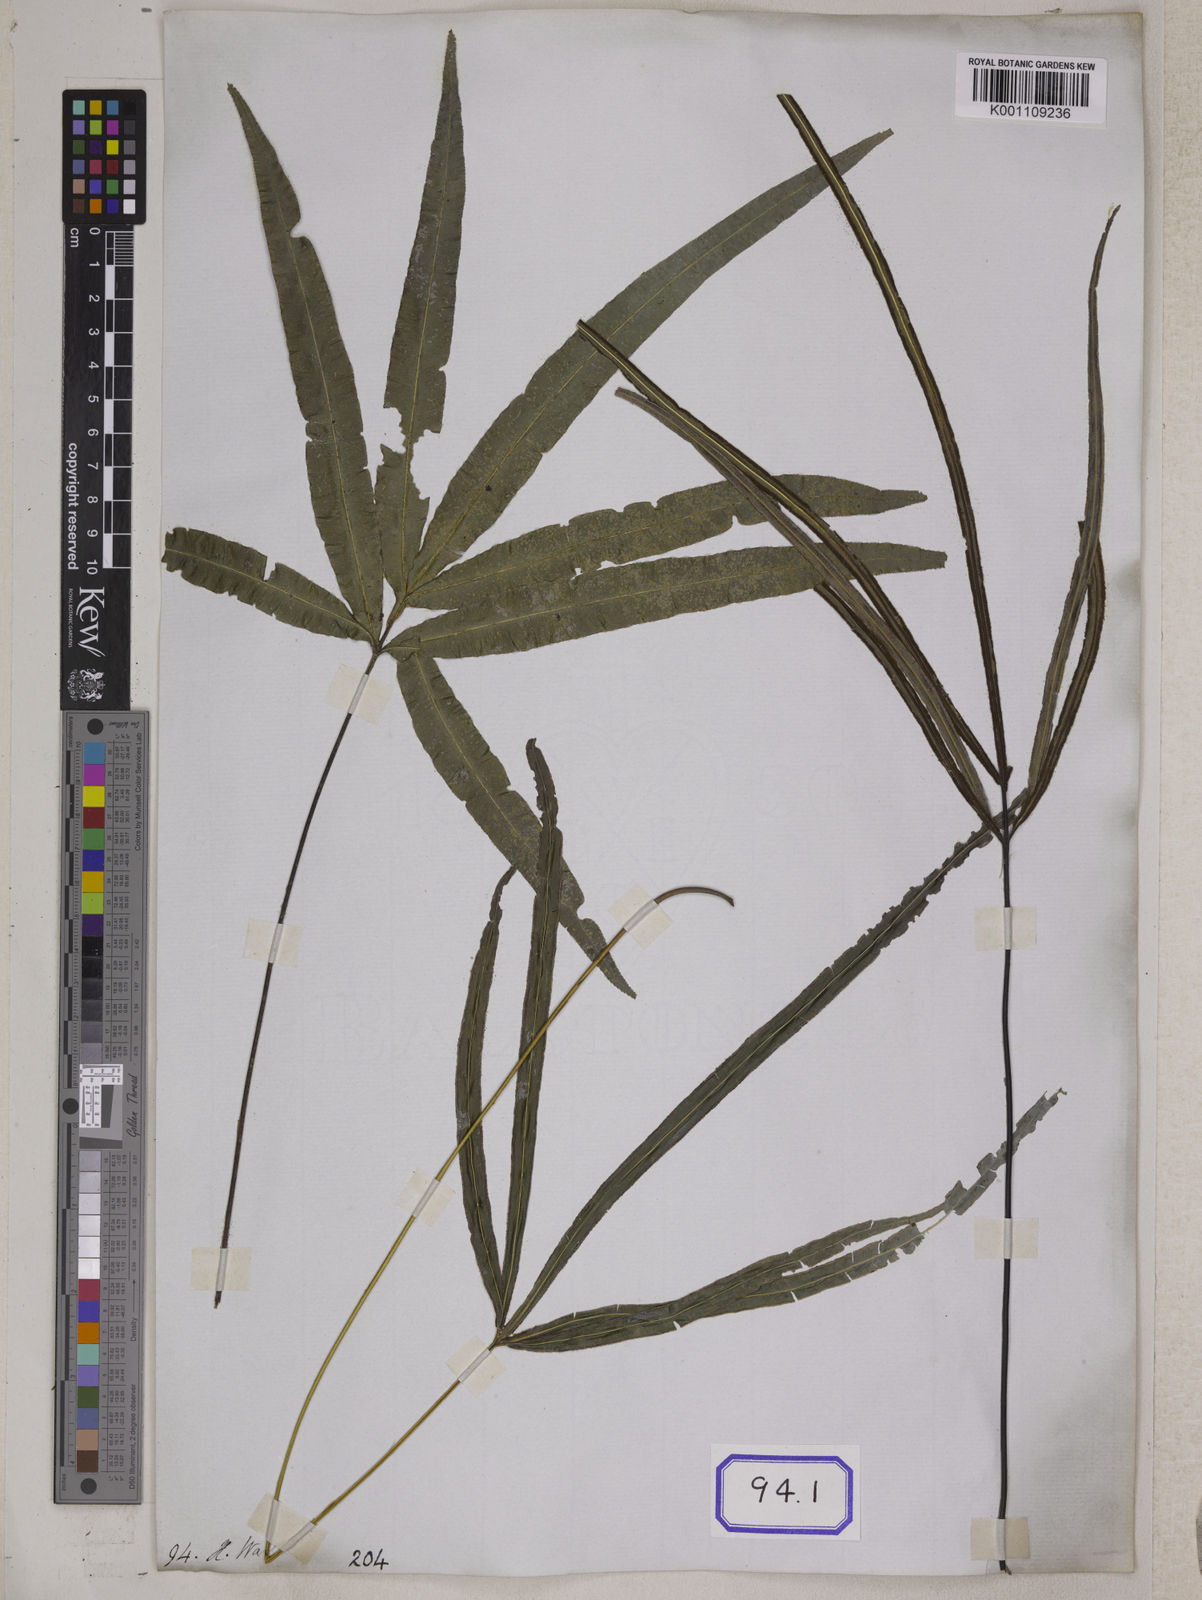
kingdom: Plantae
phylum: Tracheophyta
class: Polypodiopsida
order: Polypodiales
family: Pteridaceae
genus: Pteris
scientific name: Pteris scabripes
